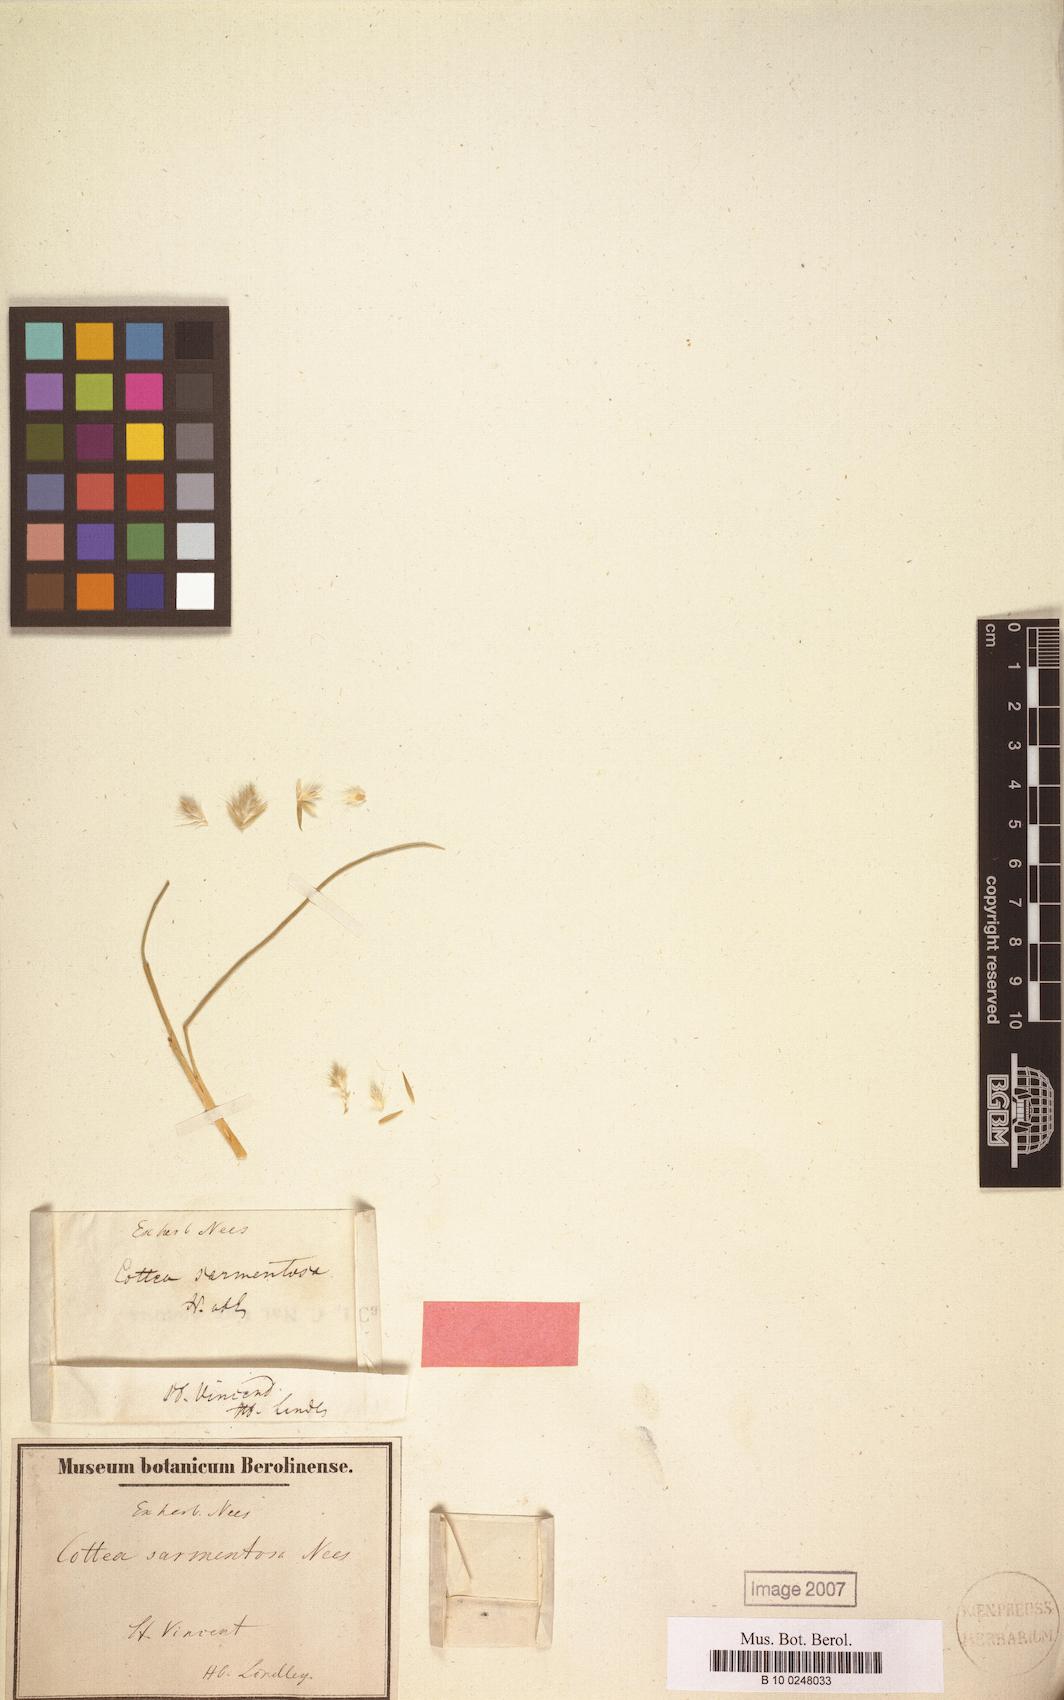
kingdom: Plantae
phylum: Tracheophyta
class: Liliopsida
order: Poales
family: Poaceae
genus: Enneapogon
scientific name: Enneapogon desvauxii
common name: Feather pappus grass
